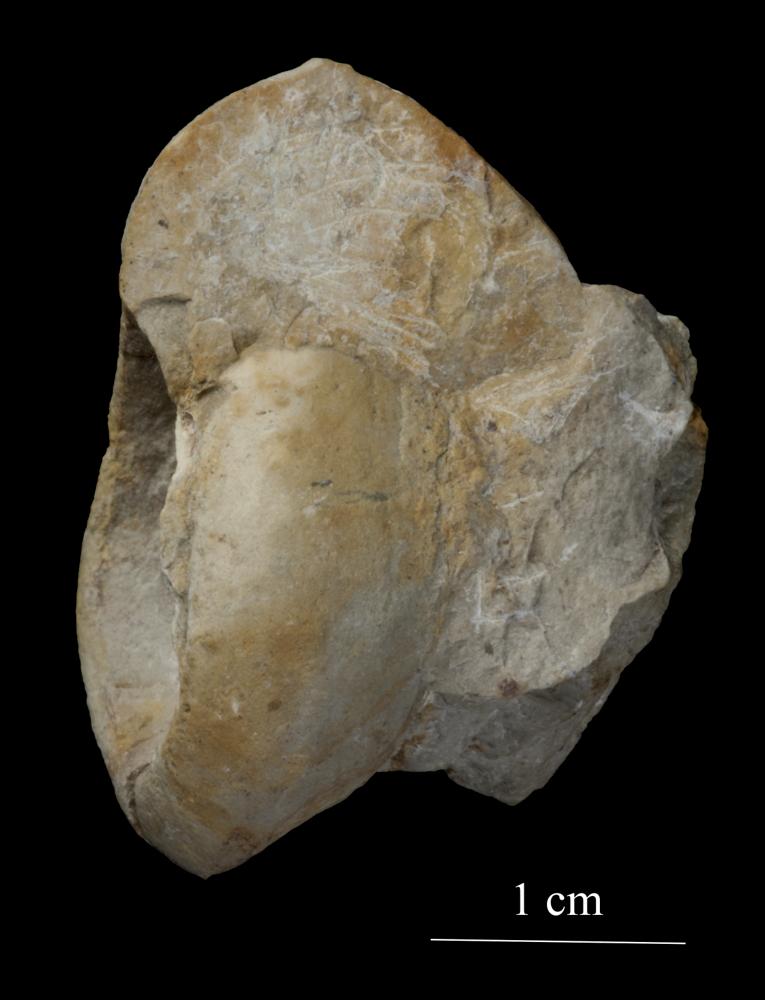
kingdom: Animalia
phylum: Mollusca
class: Gastropoda
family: Bucaniidae
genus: Megalomphala
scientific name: Megalomphala Bucania crassiuscula
